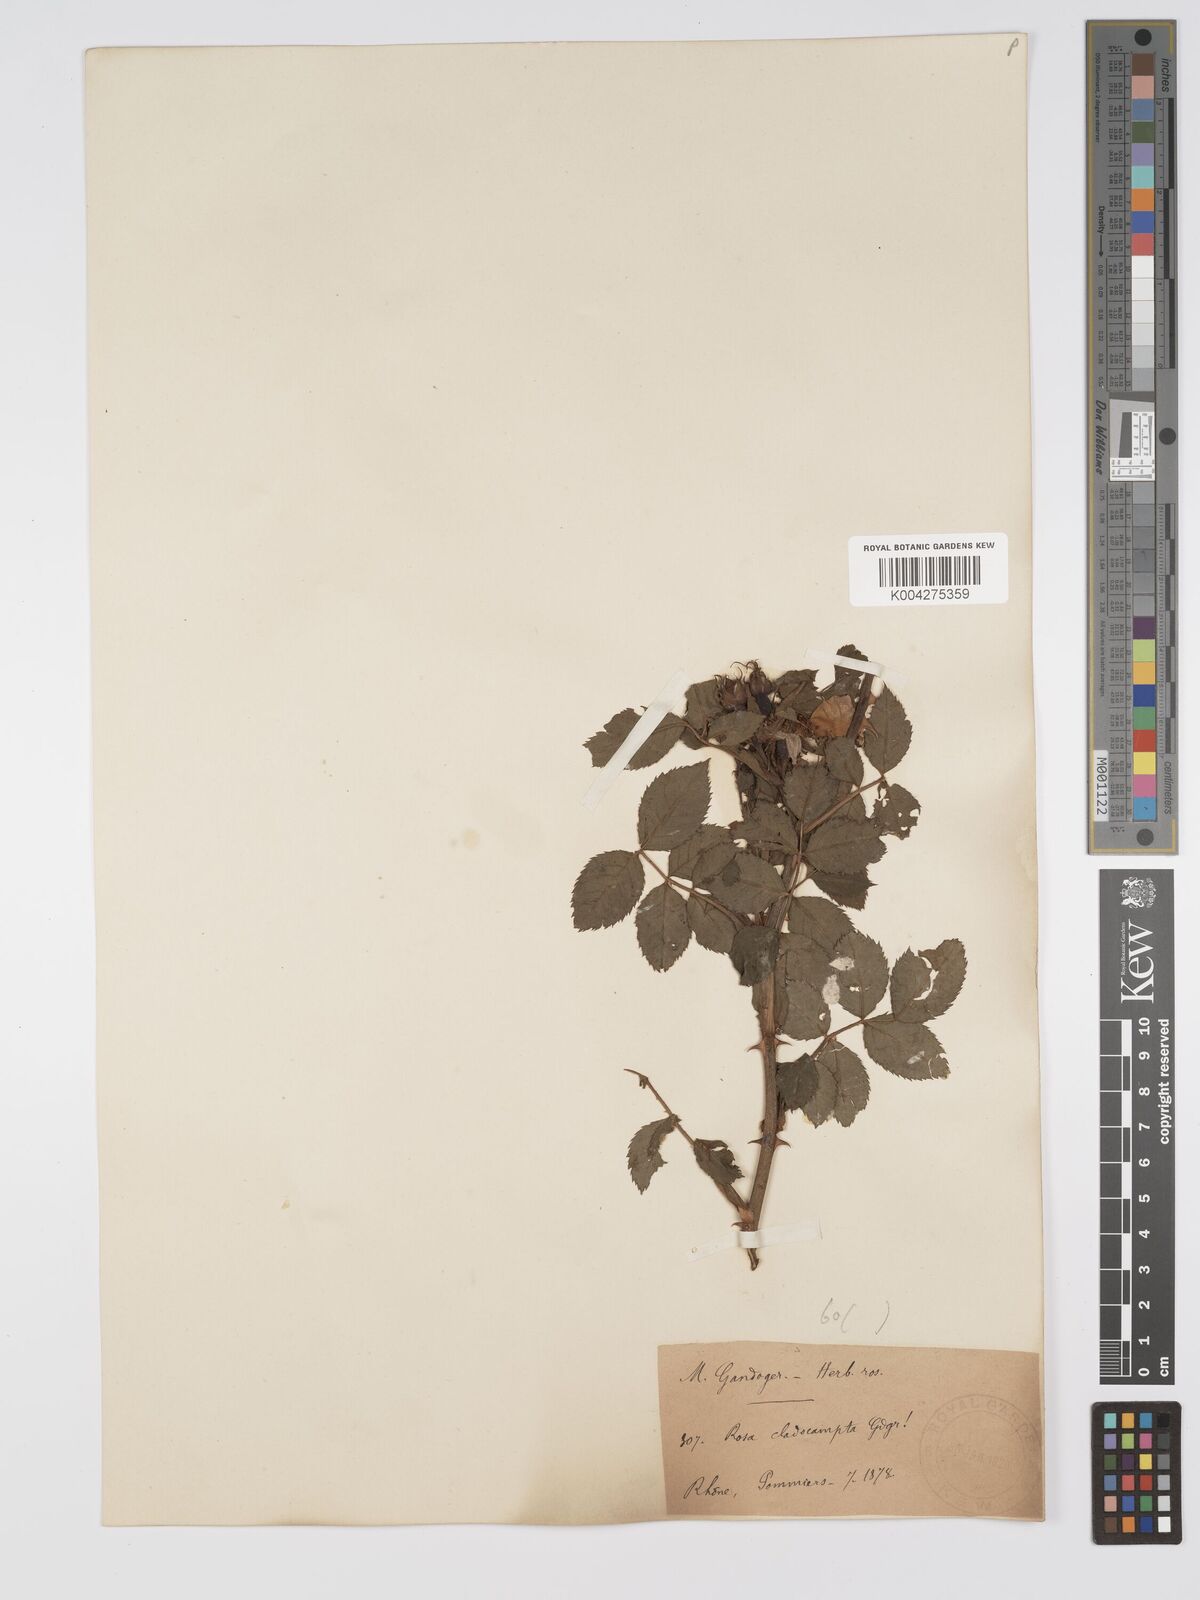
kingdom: Plantae
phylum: Tracheophyta
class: Magnoliopsida
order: Rosales
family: Rosaceae
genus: Rosa
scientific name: Rosa
